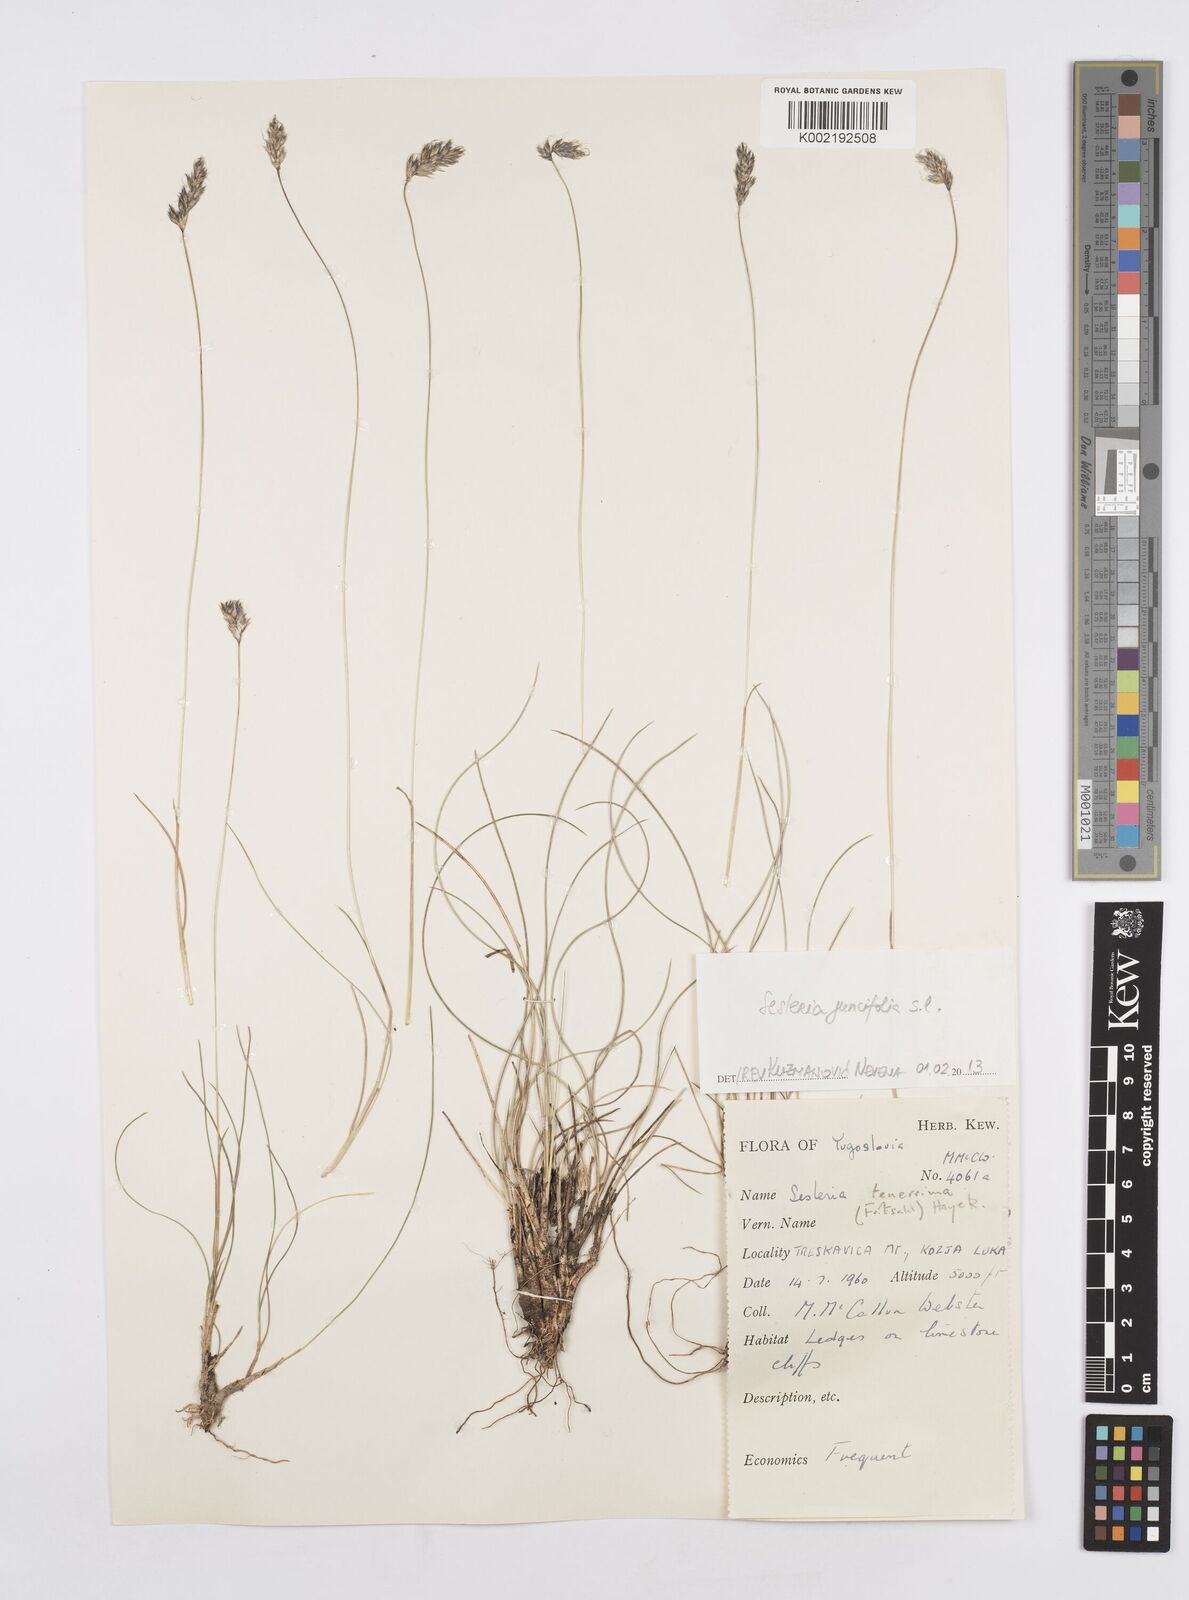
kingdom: Plantae
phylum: Tracheophyta
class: Liliopsida
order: Poales
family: Poaceae
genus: Sesleria
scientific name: Sesleria juncifolia
